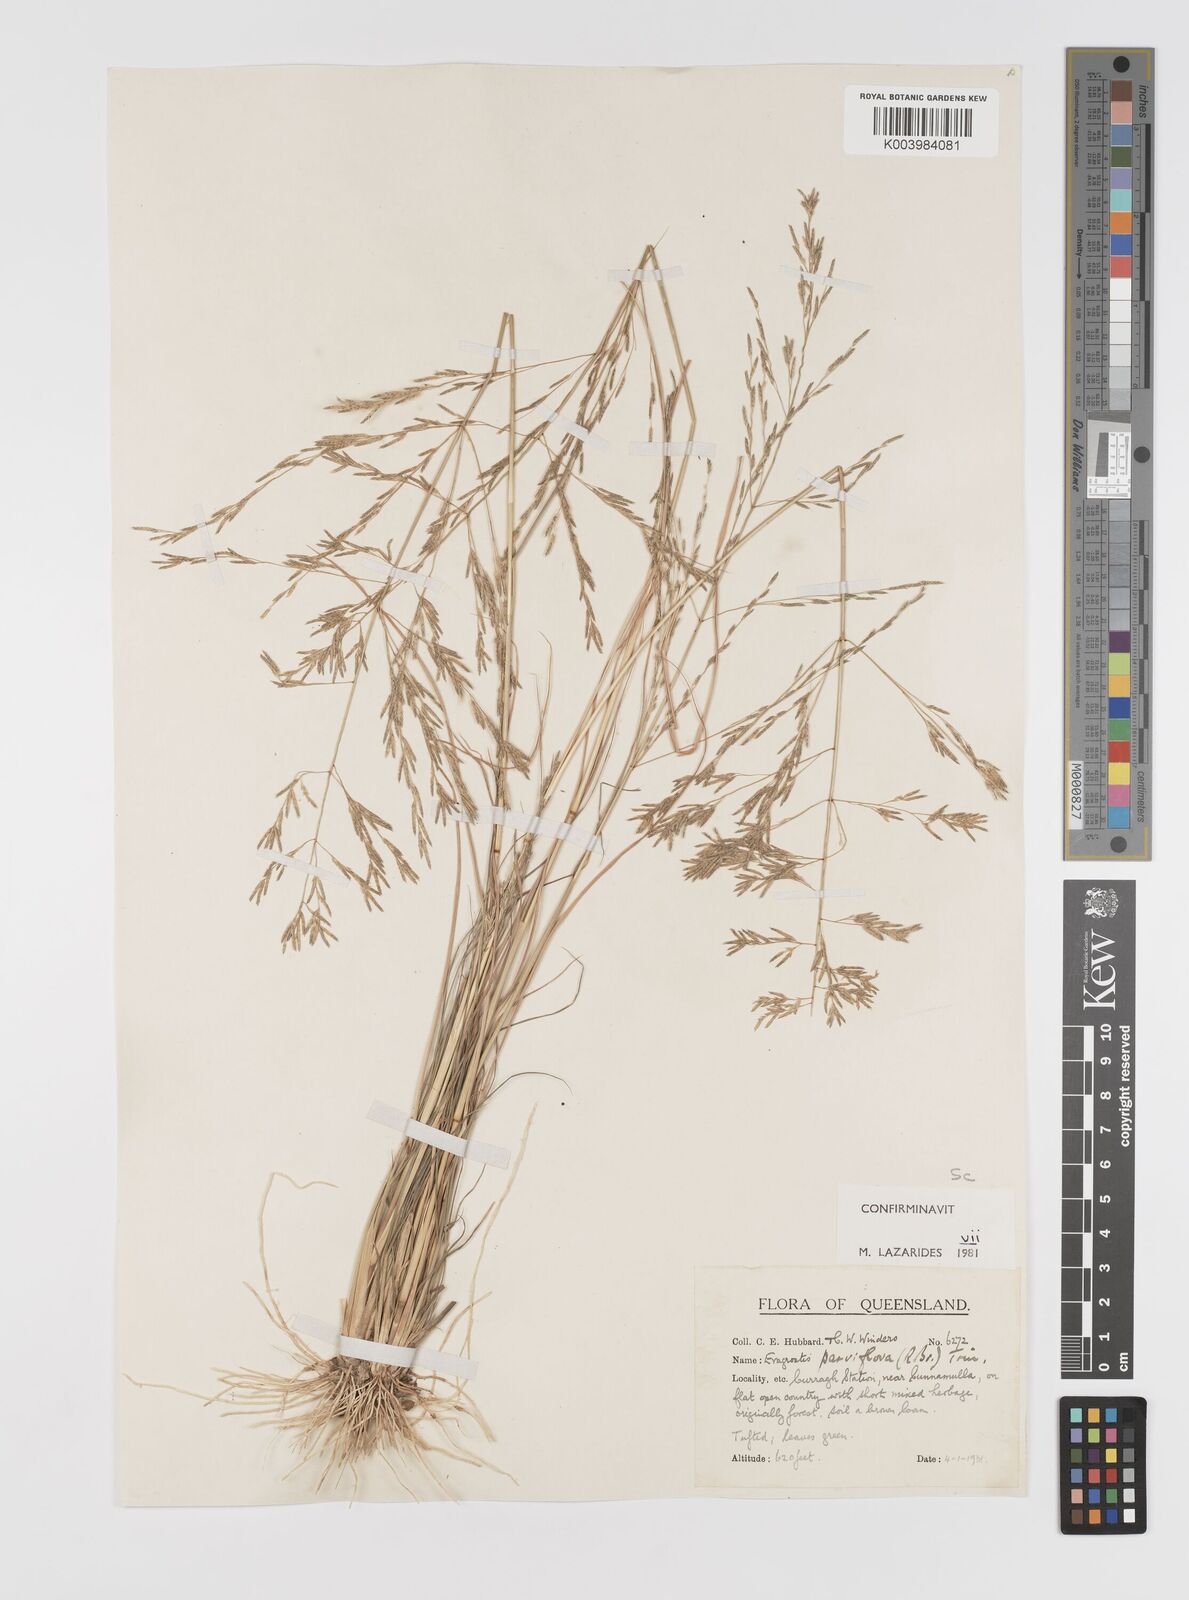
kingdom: Plantae
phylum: Tracheophyta
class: Liliopsida
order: Poales
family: Poaceae
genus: Eragrostis
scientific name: Eragrostis parviflora
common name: Weeping love-grass
